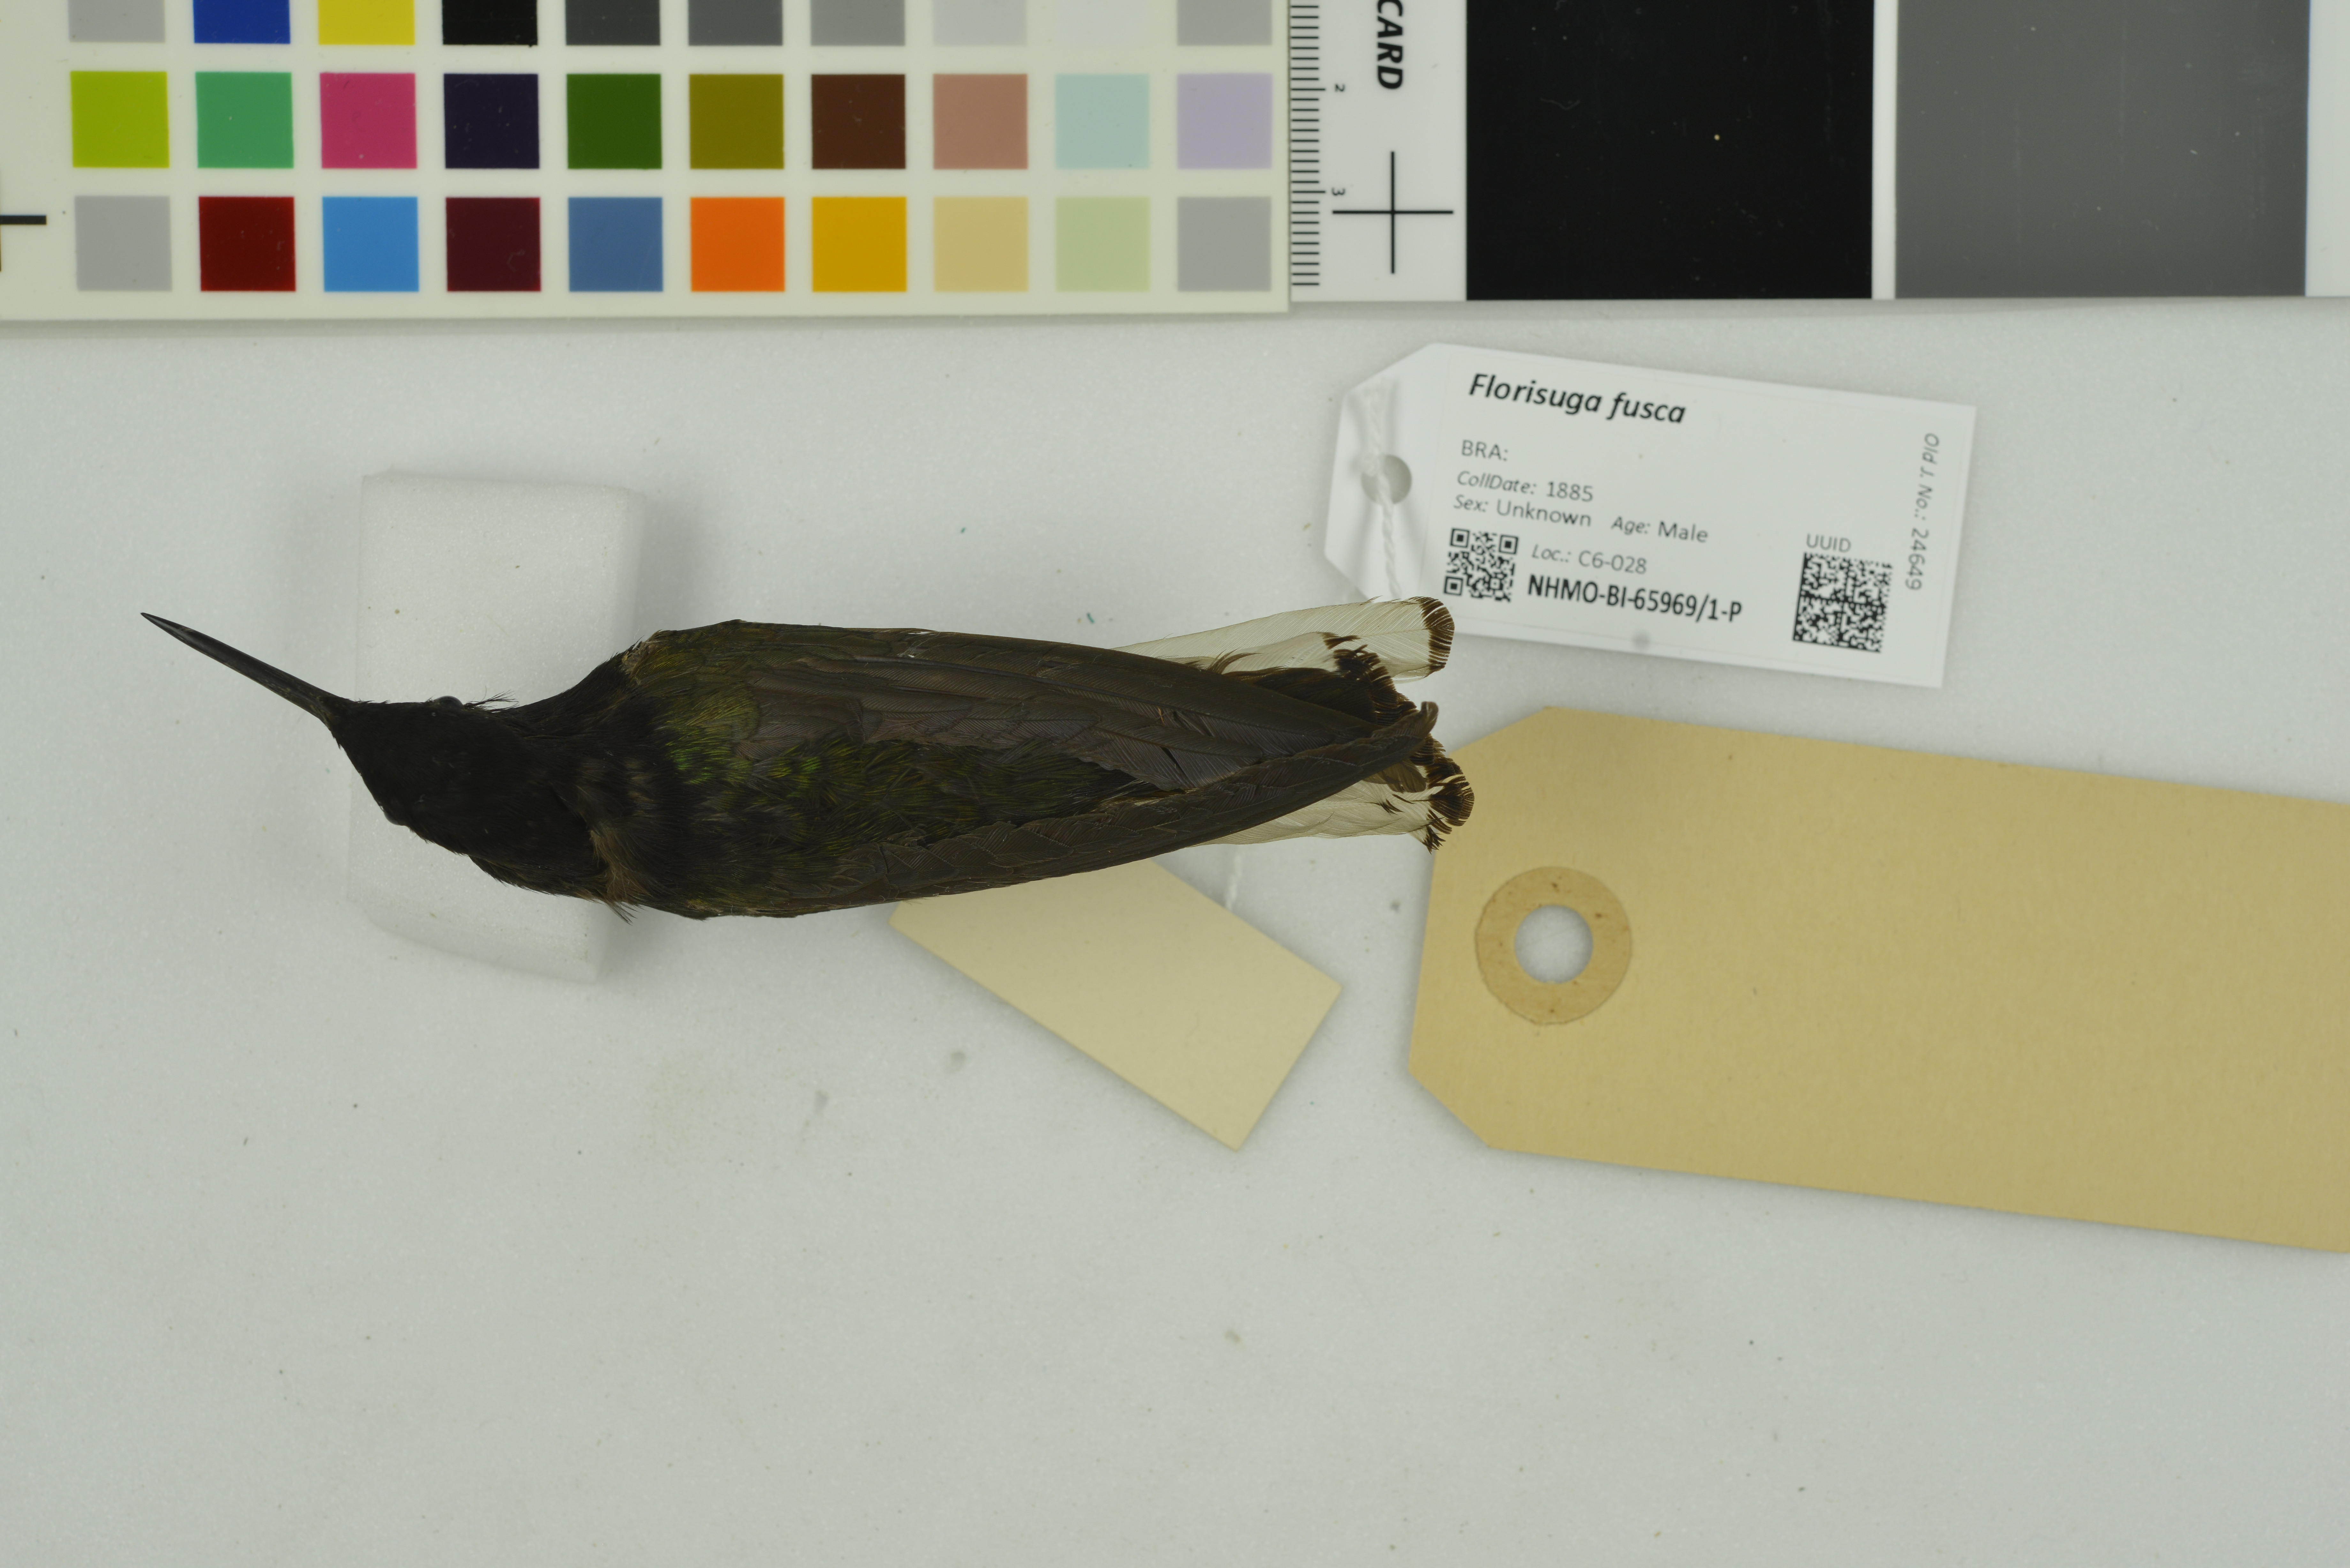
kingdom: Animalia
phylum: Chordata
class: Aves
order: Apodiformes
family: Trochilidae
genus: Florisuga
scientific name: Florisuga fusca
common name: Black jacobin
